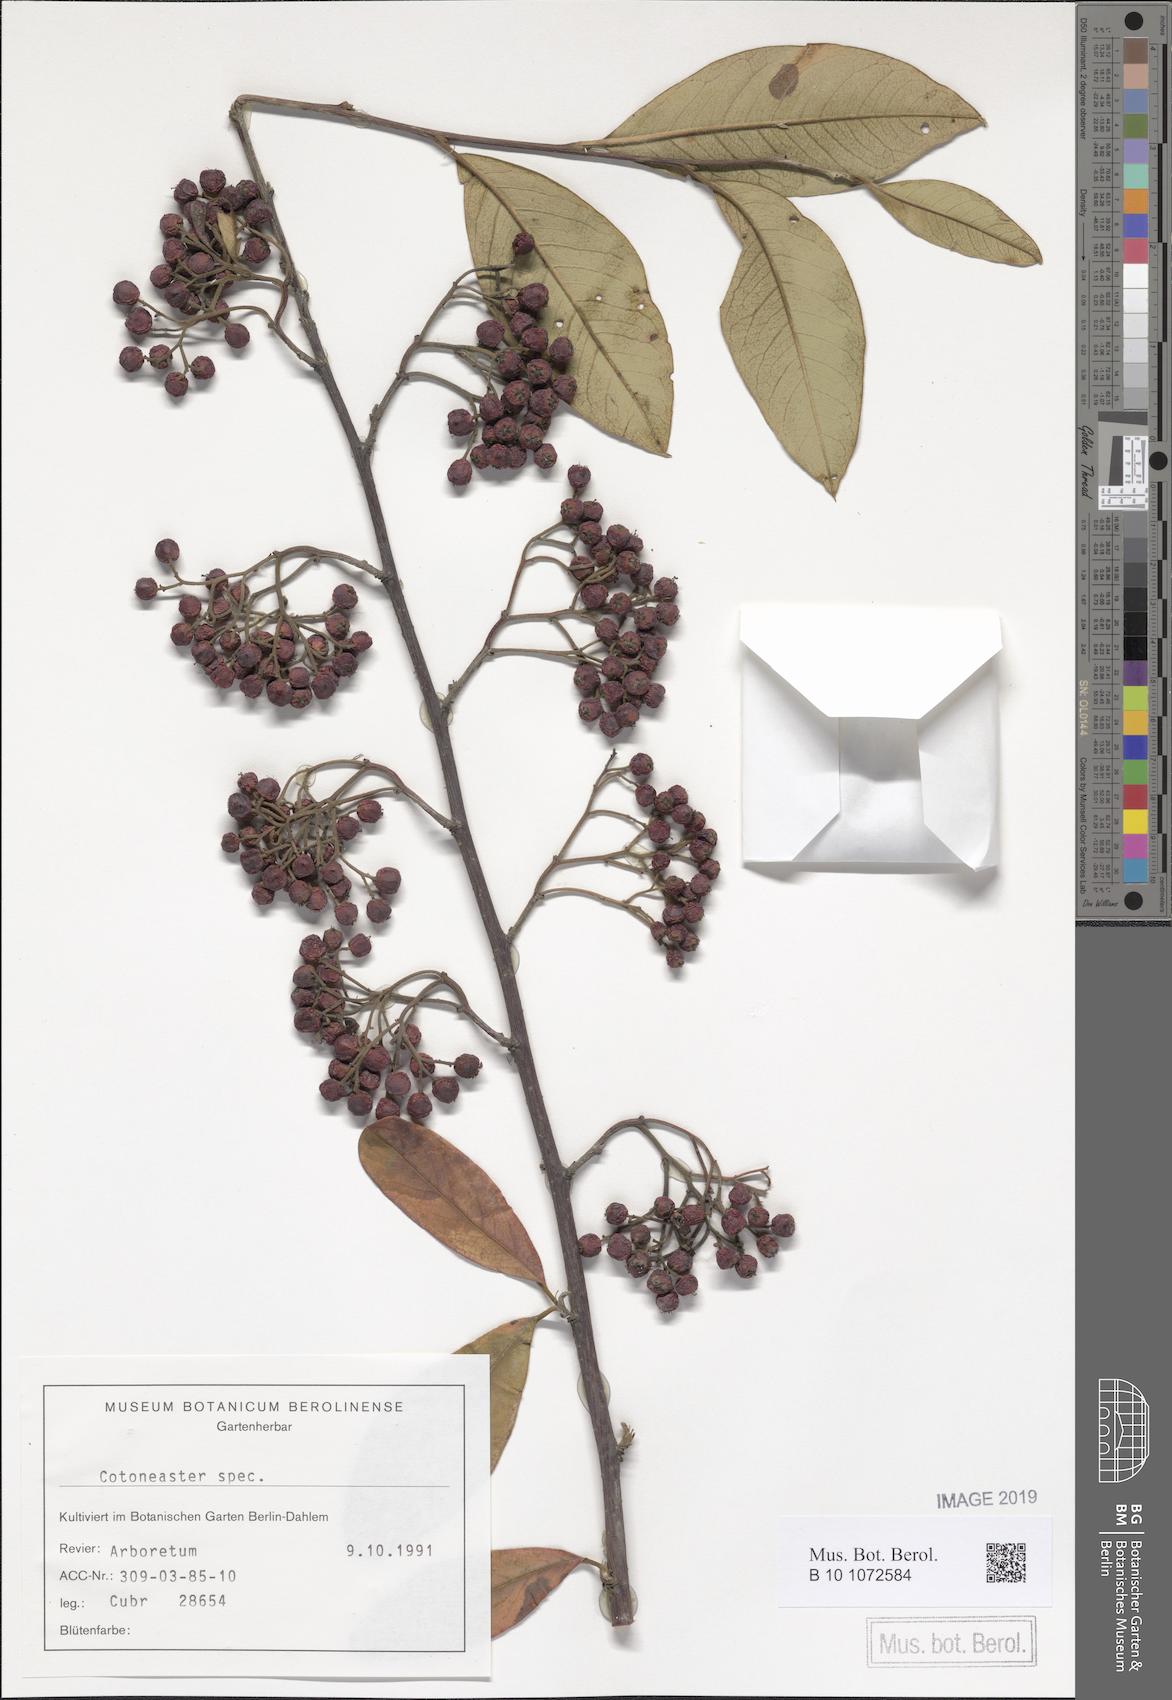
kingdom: Plantae
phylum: Tracheophyta
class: Magnoliopsida
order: Rosales
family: Rosaceae
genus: Cotoneaster
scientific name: Cotoneaster frigidus
